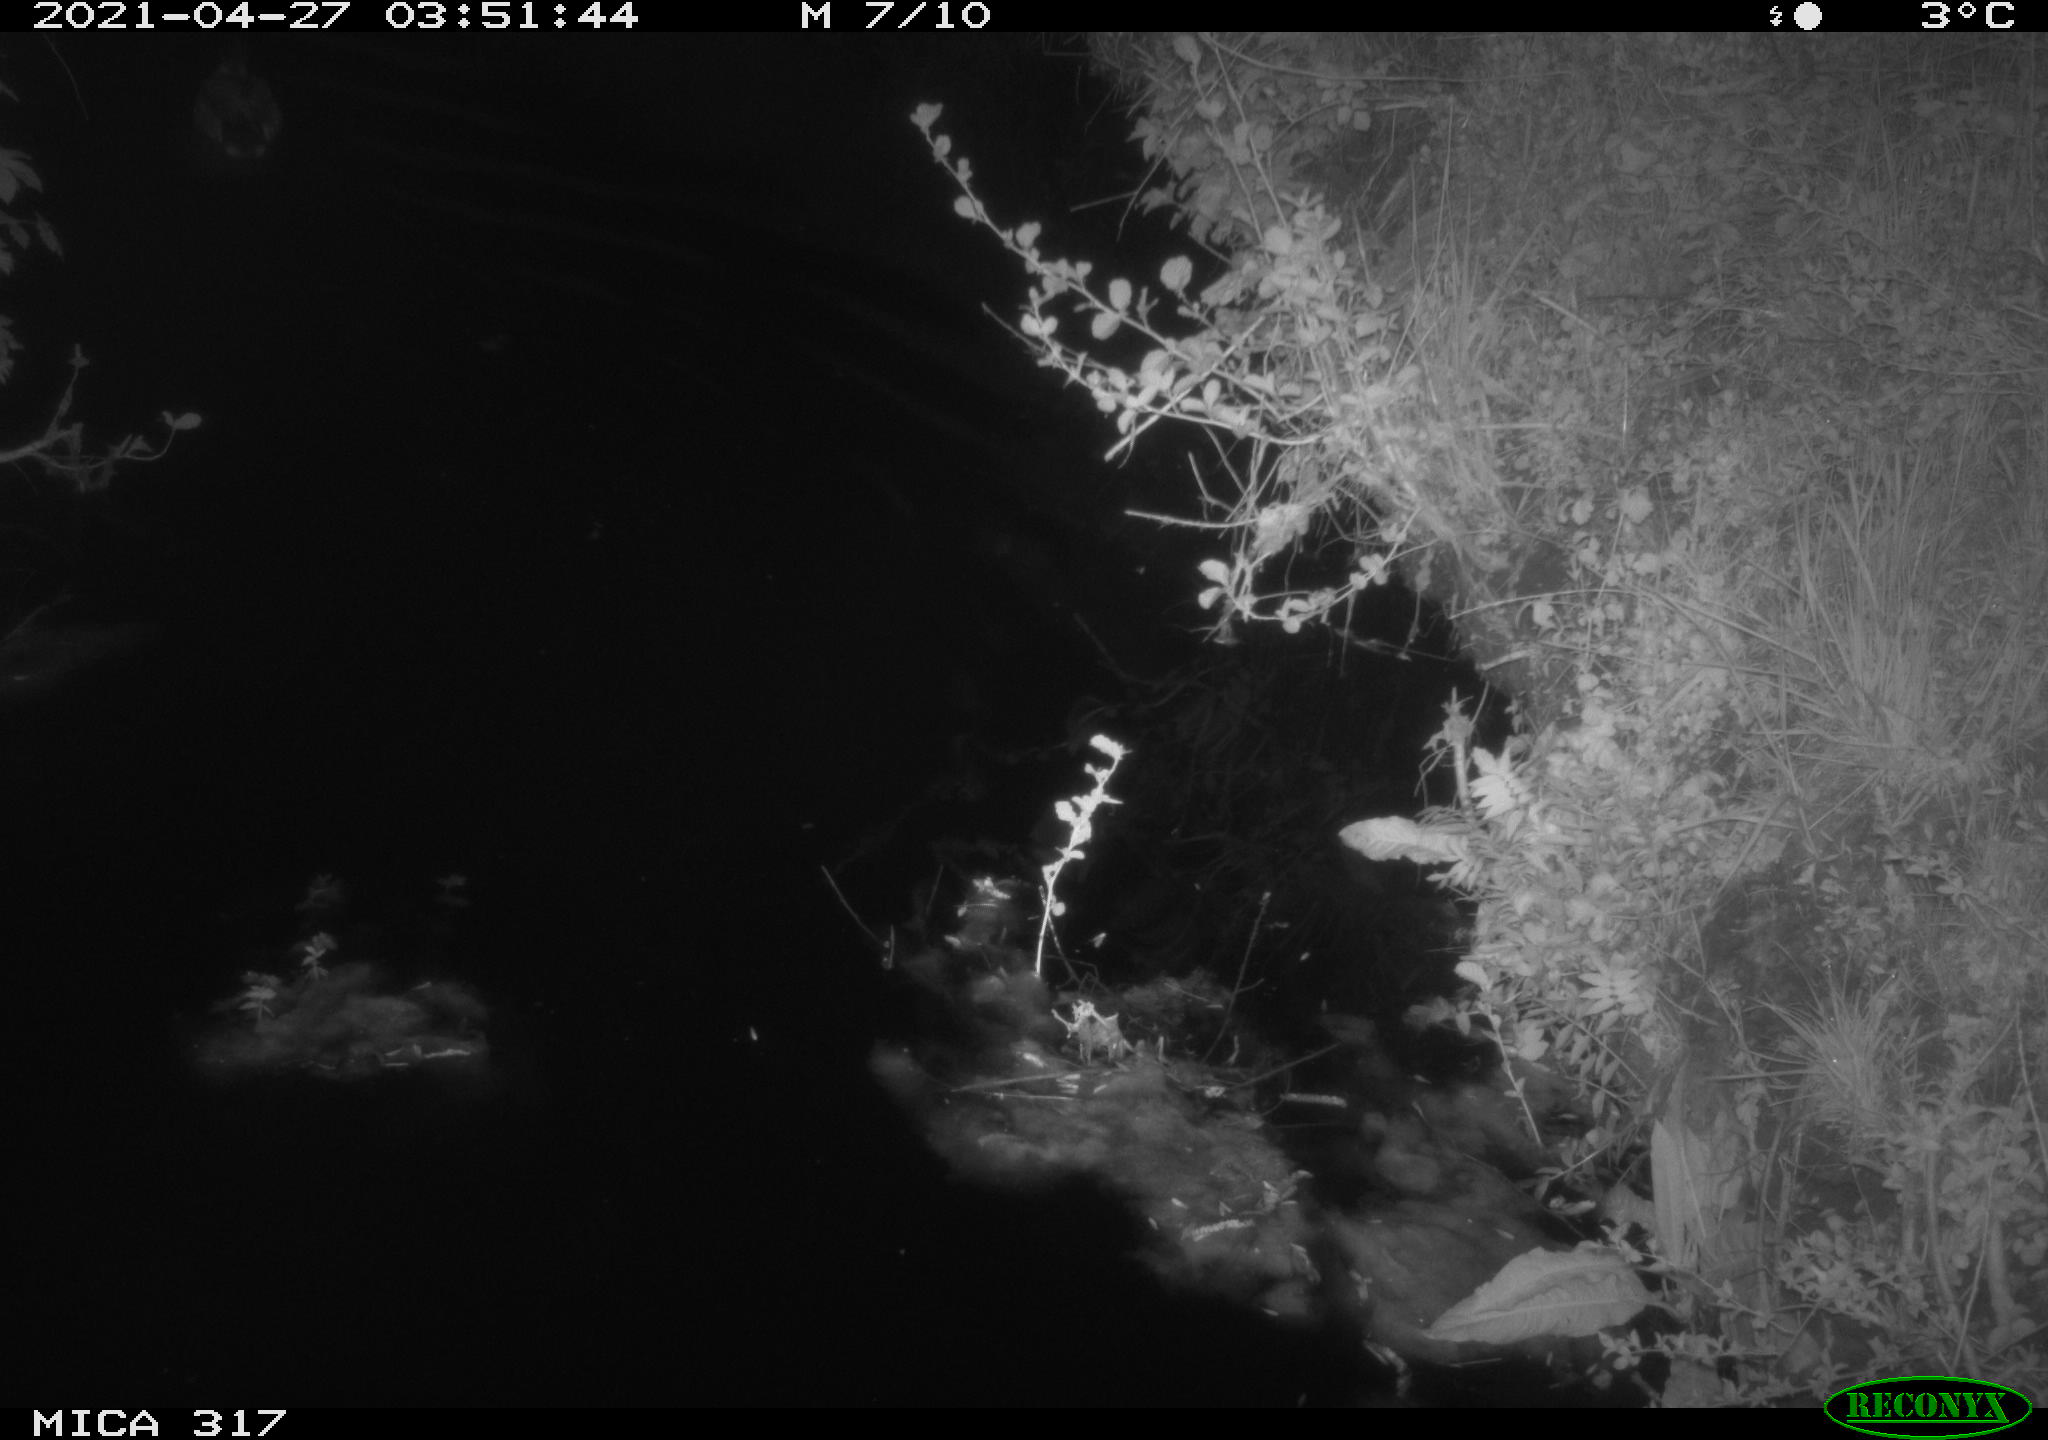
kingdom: Animalia
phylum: Chordata
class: Aves
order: Anseriformes
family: Anatidae
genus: Anas
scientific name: Anas
